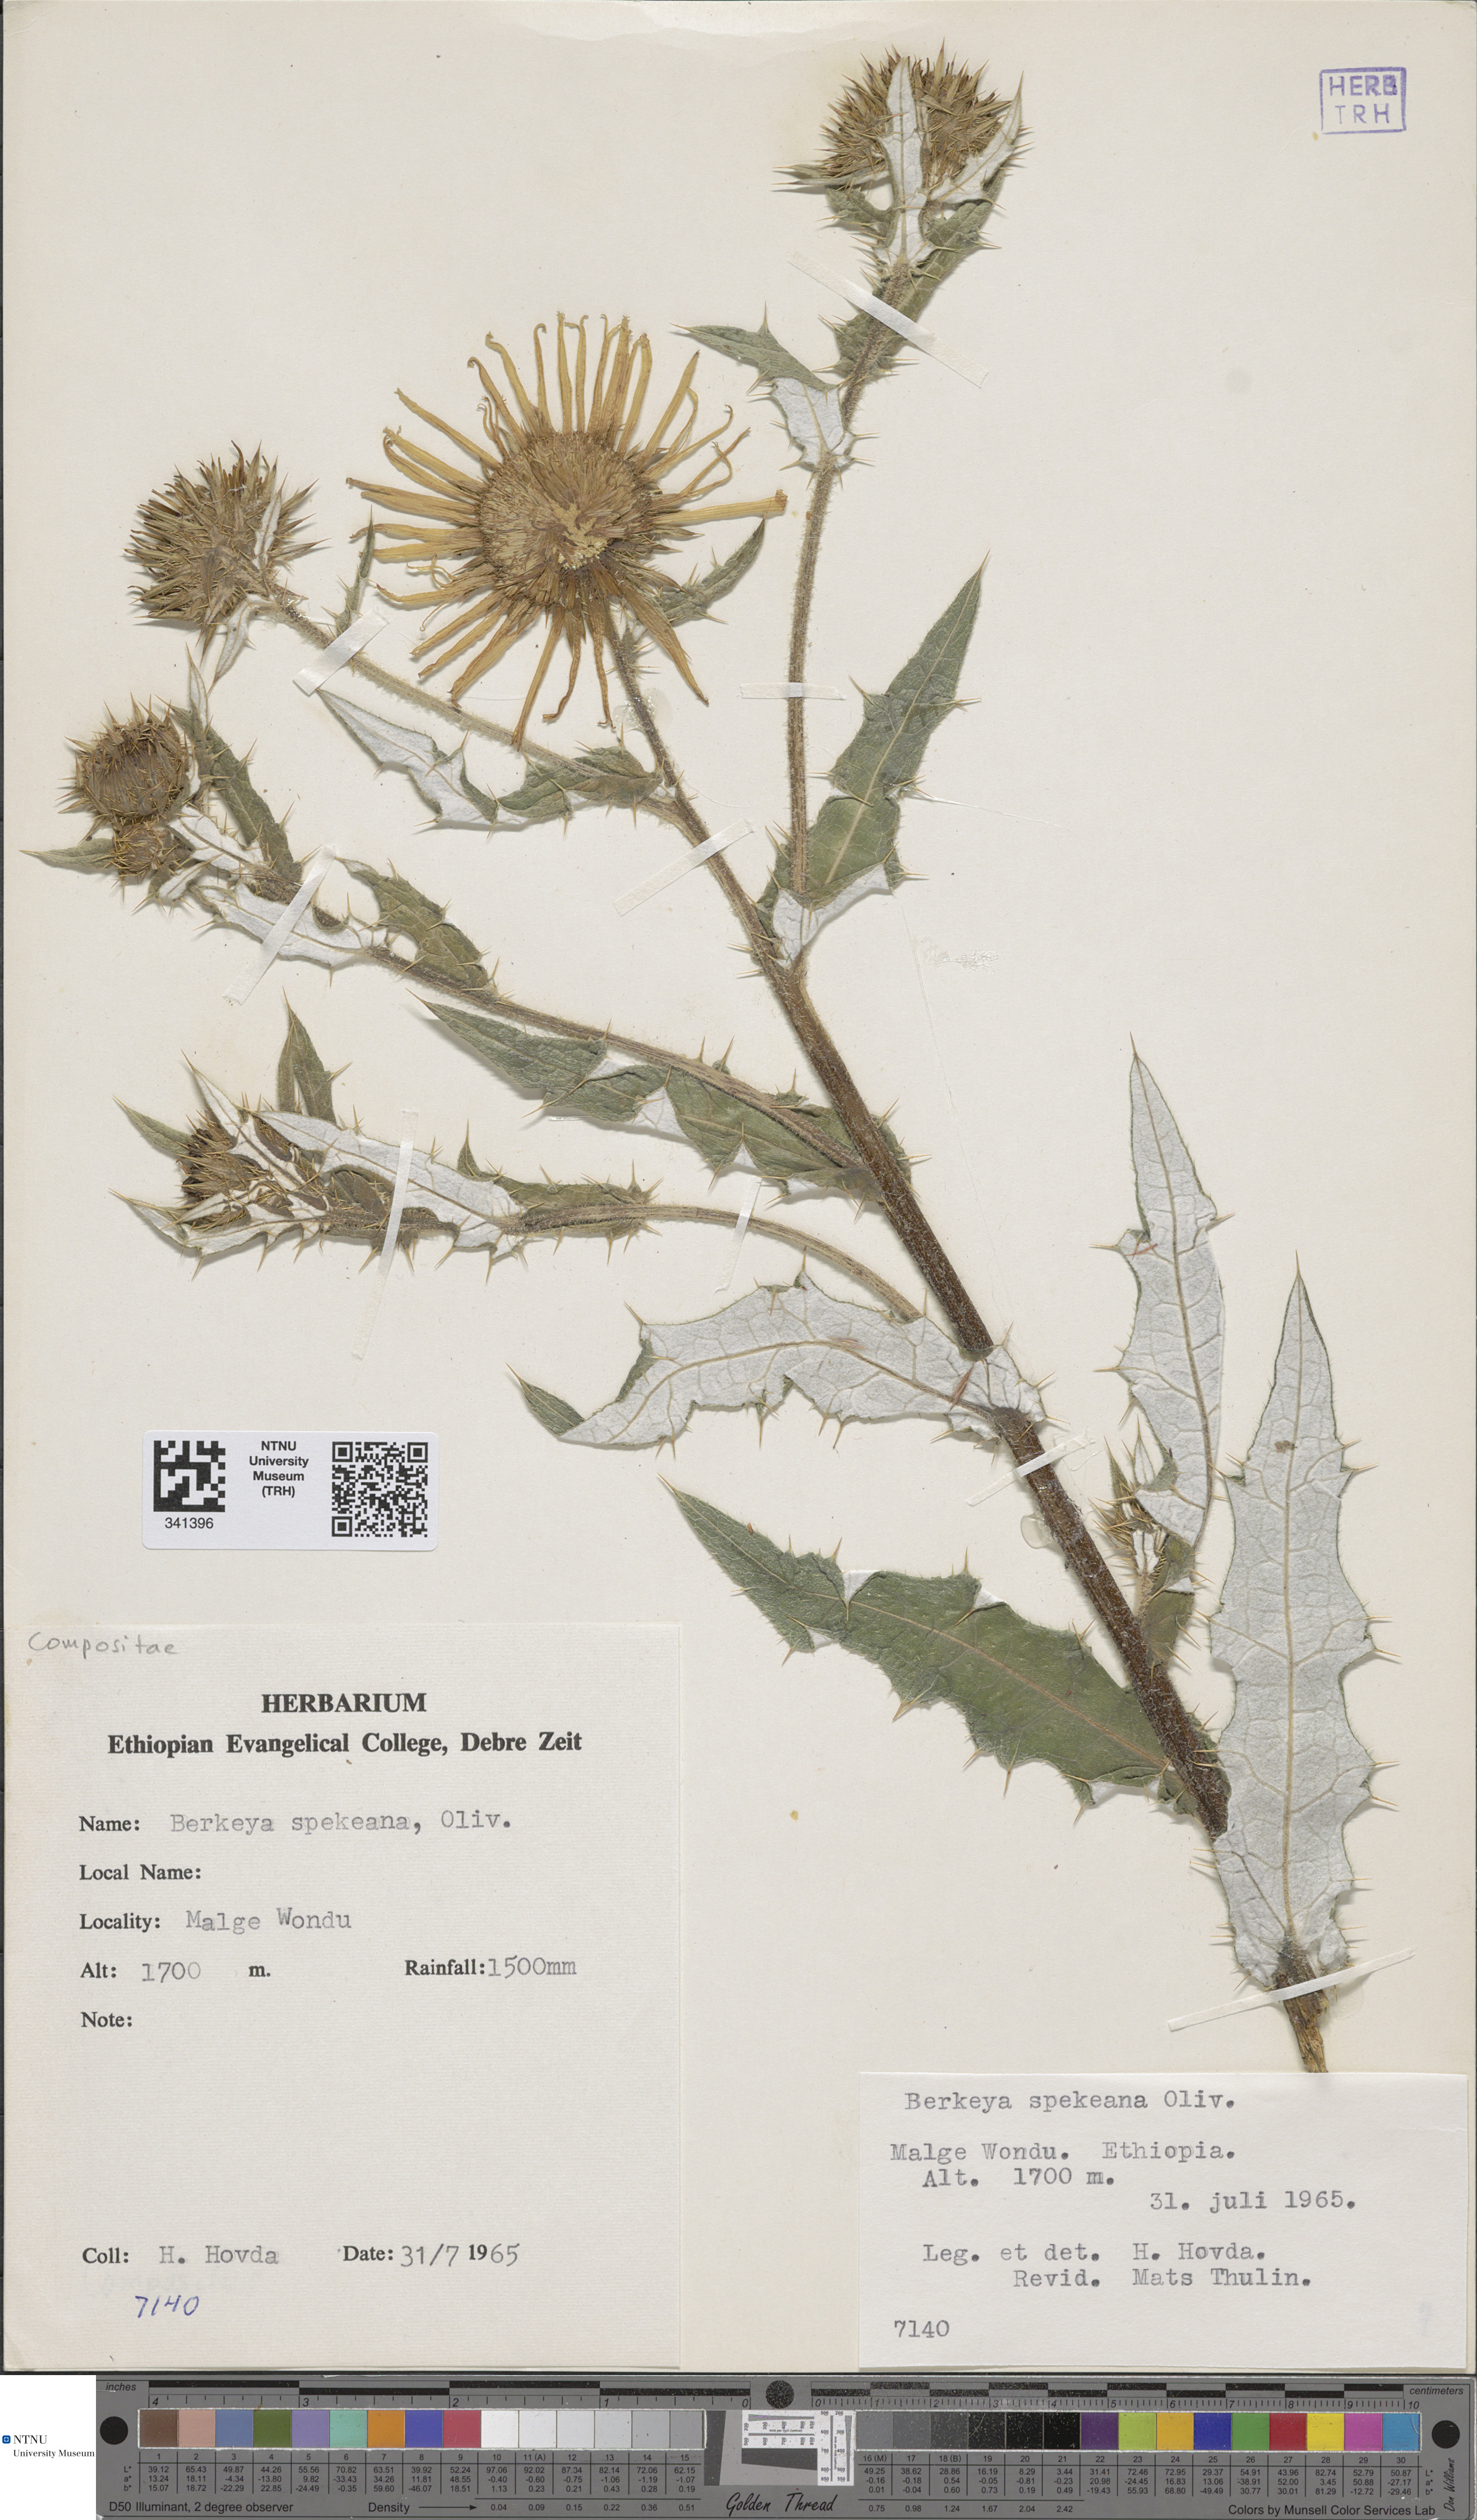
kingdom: Plantae
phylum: Tracheophyta
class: Magnoliopsida
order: Asterales
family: Asteraceae
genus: Berkheya
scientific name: Berkheya spekeana
